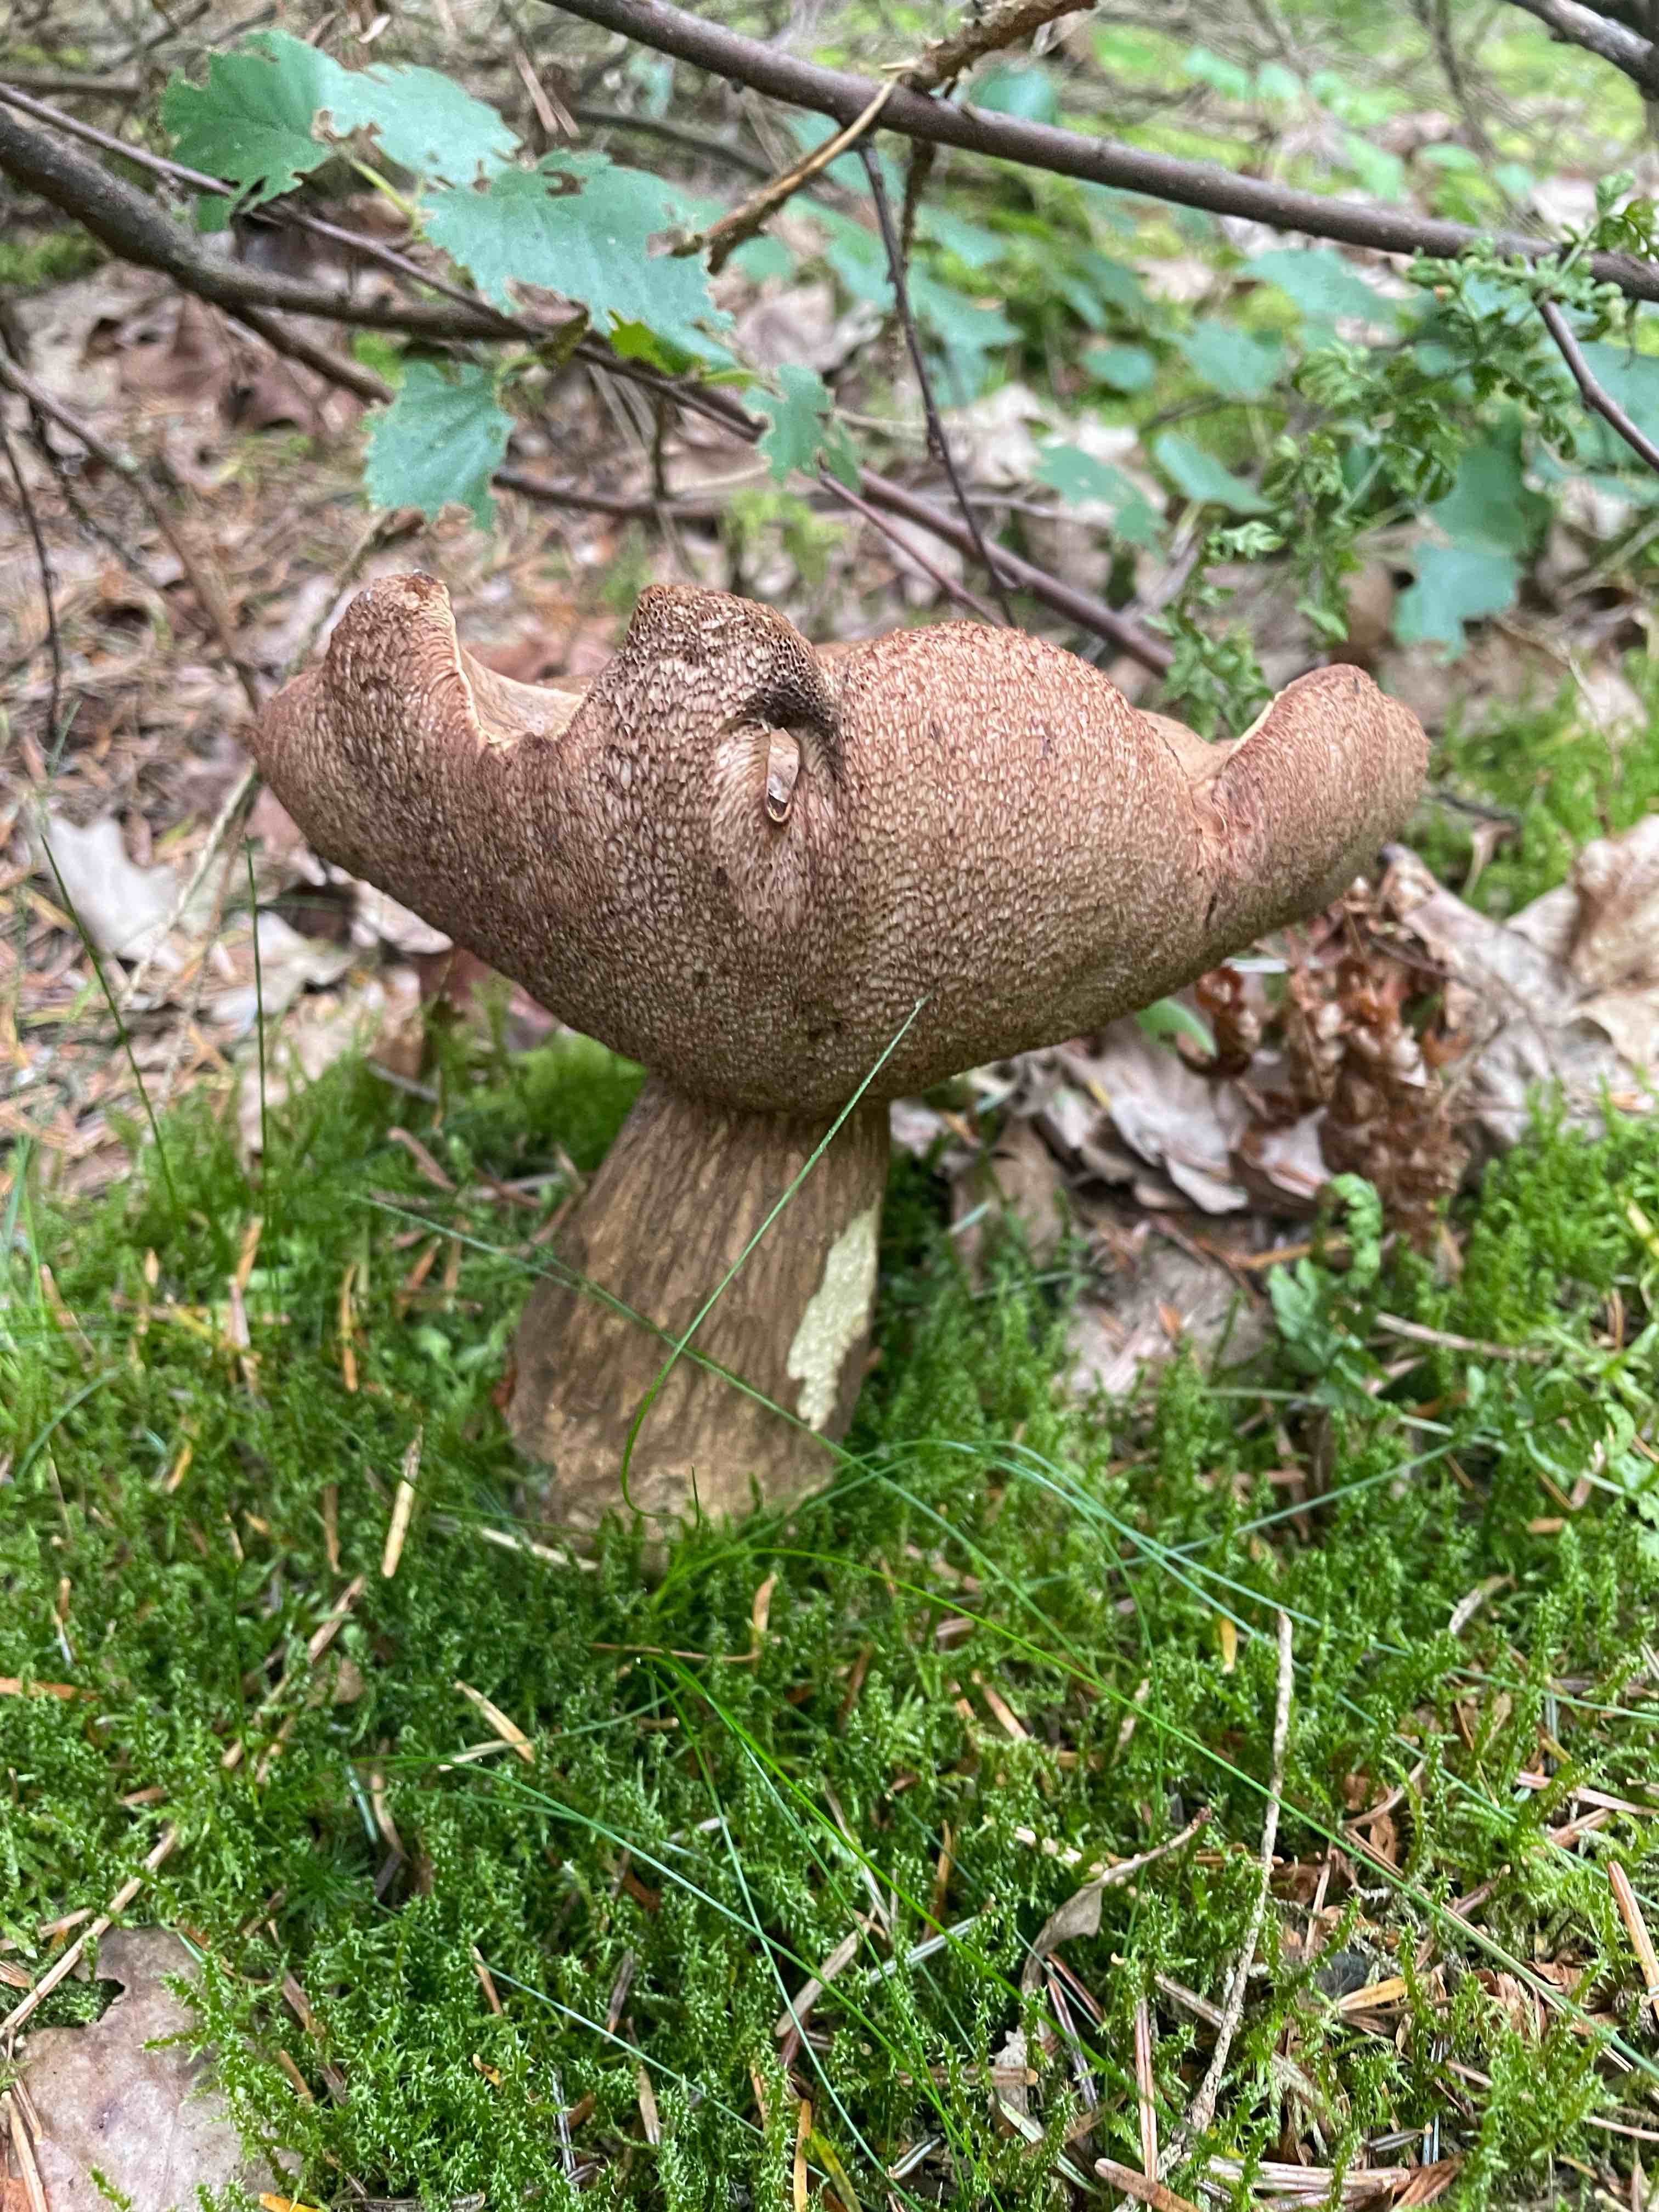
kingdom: Fungi
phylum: Basidiomycota
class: Agaricomycetes
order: Boletales
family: Boletaceae
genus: Tylopilus
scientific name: Tylopilus felleus
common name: galderørhat
